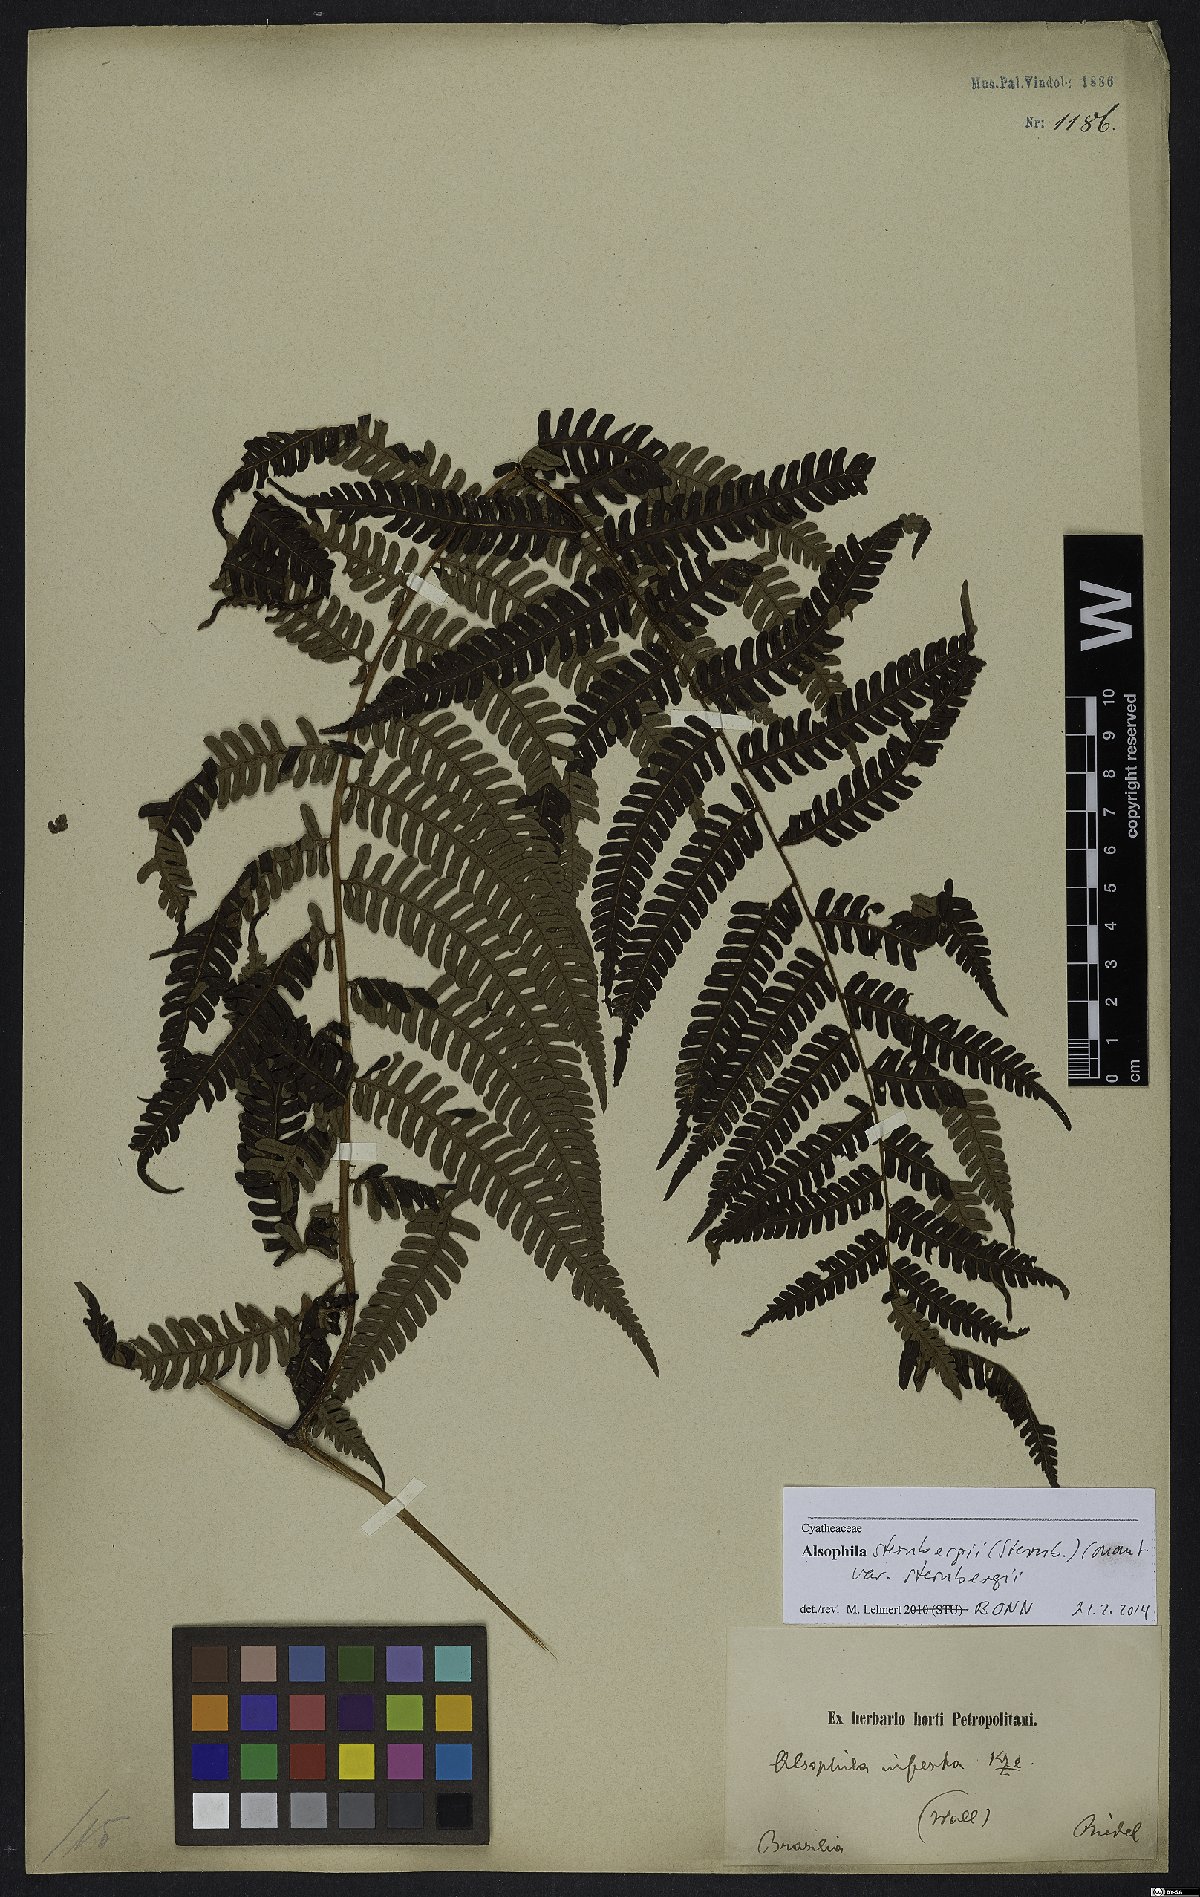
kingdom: Plantae
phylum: Tracheophyta
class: Polypodiopsida
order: Cyatheales
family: Cyatheaceae
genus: Alsophila
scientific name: Alsophila sternbergii
